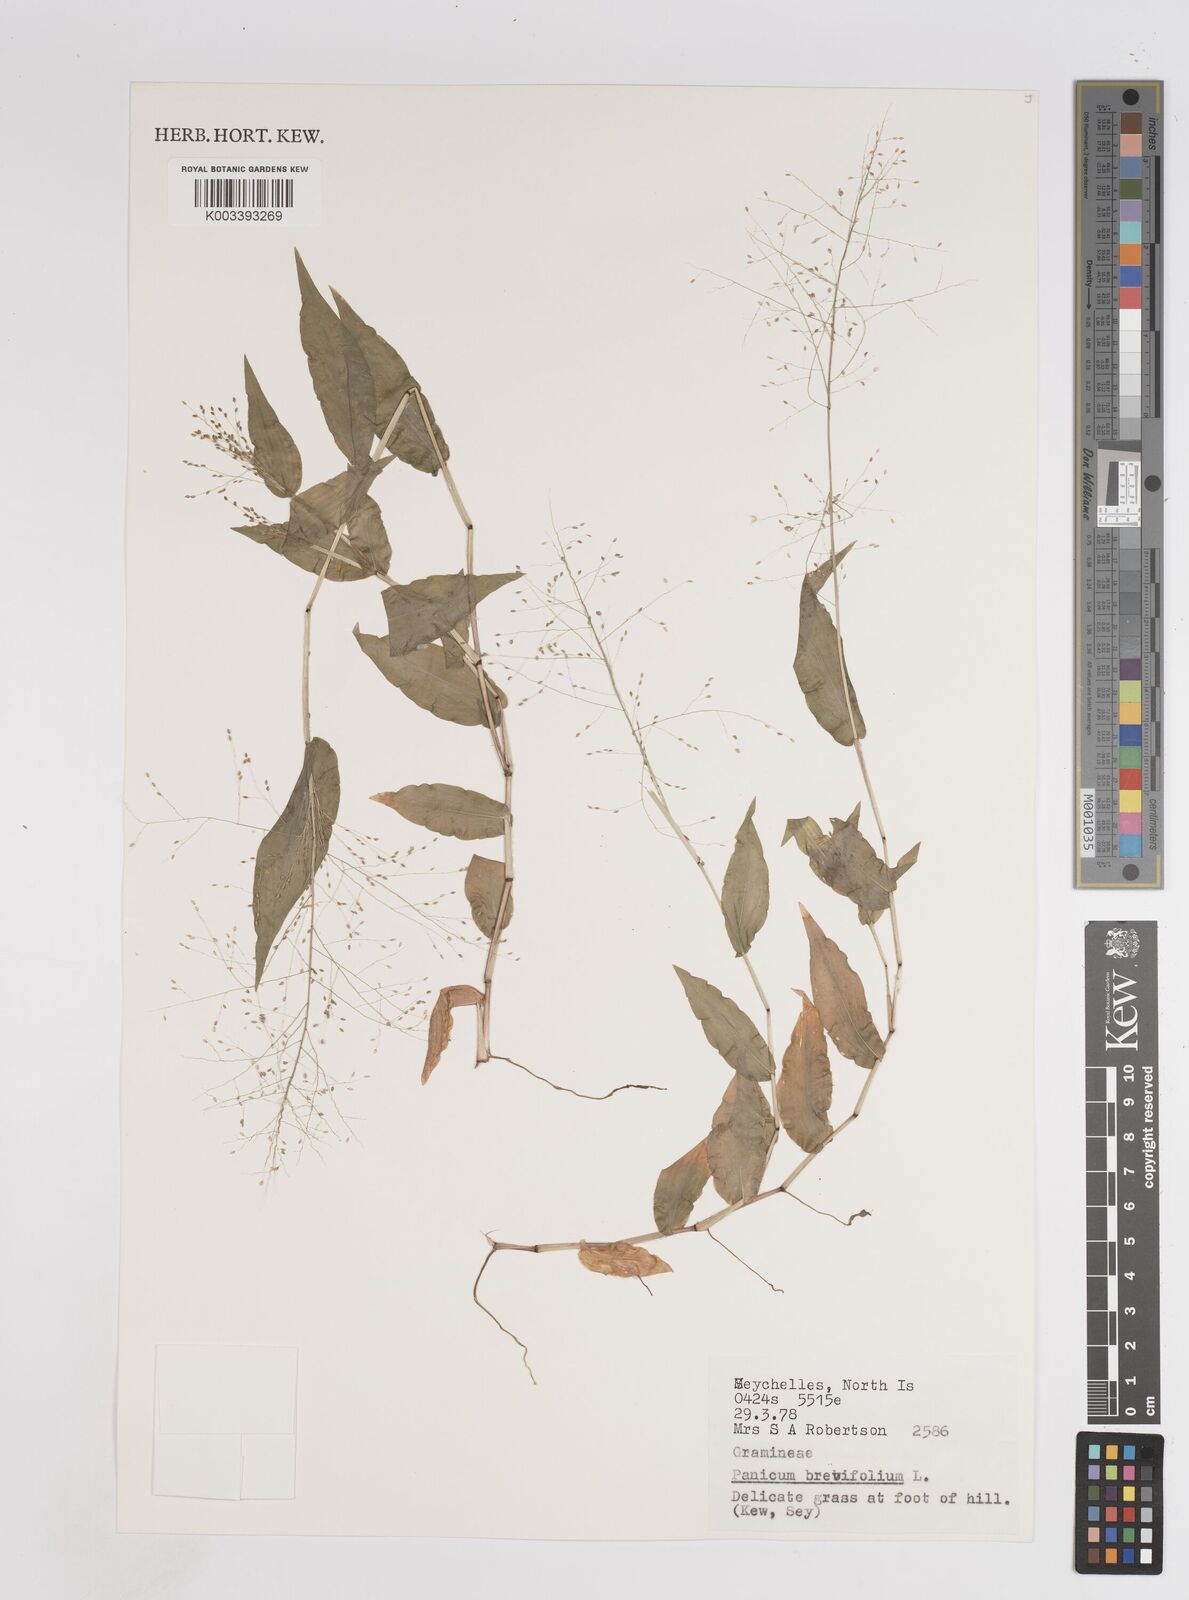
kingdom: Plantae
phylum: Tracheophyta
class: Liliopsida
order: Poales
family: Poaceae
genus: Panicum
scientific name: Panicum brevifolium
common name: Shortleaf panic grass
